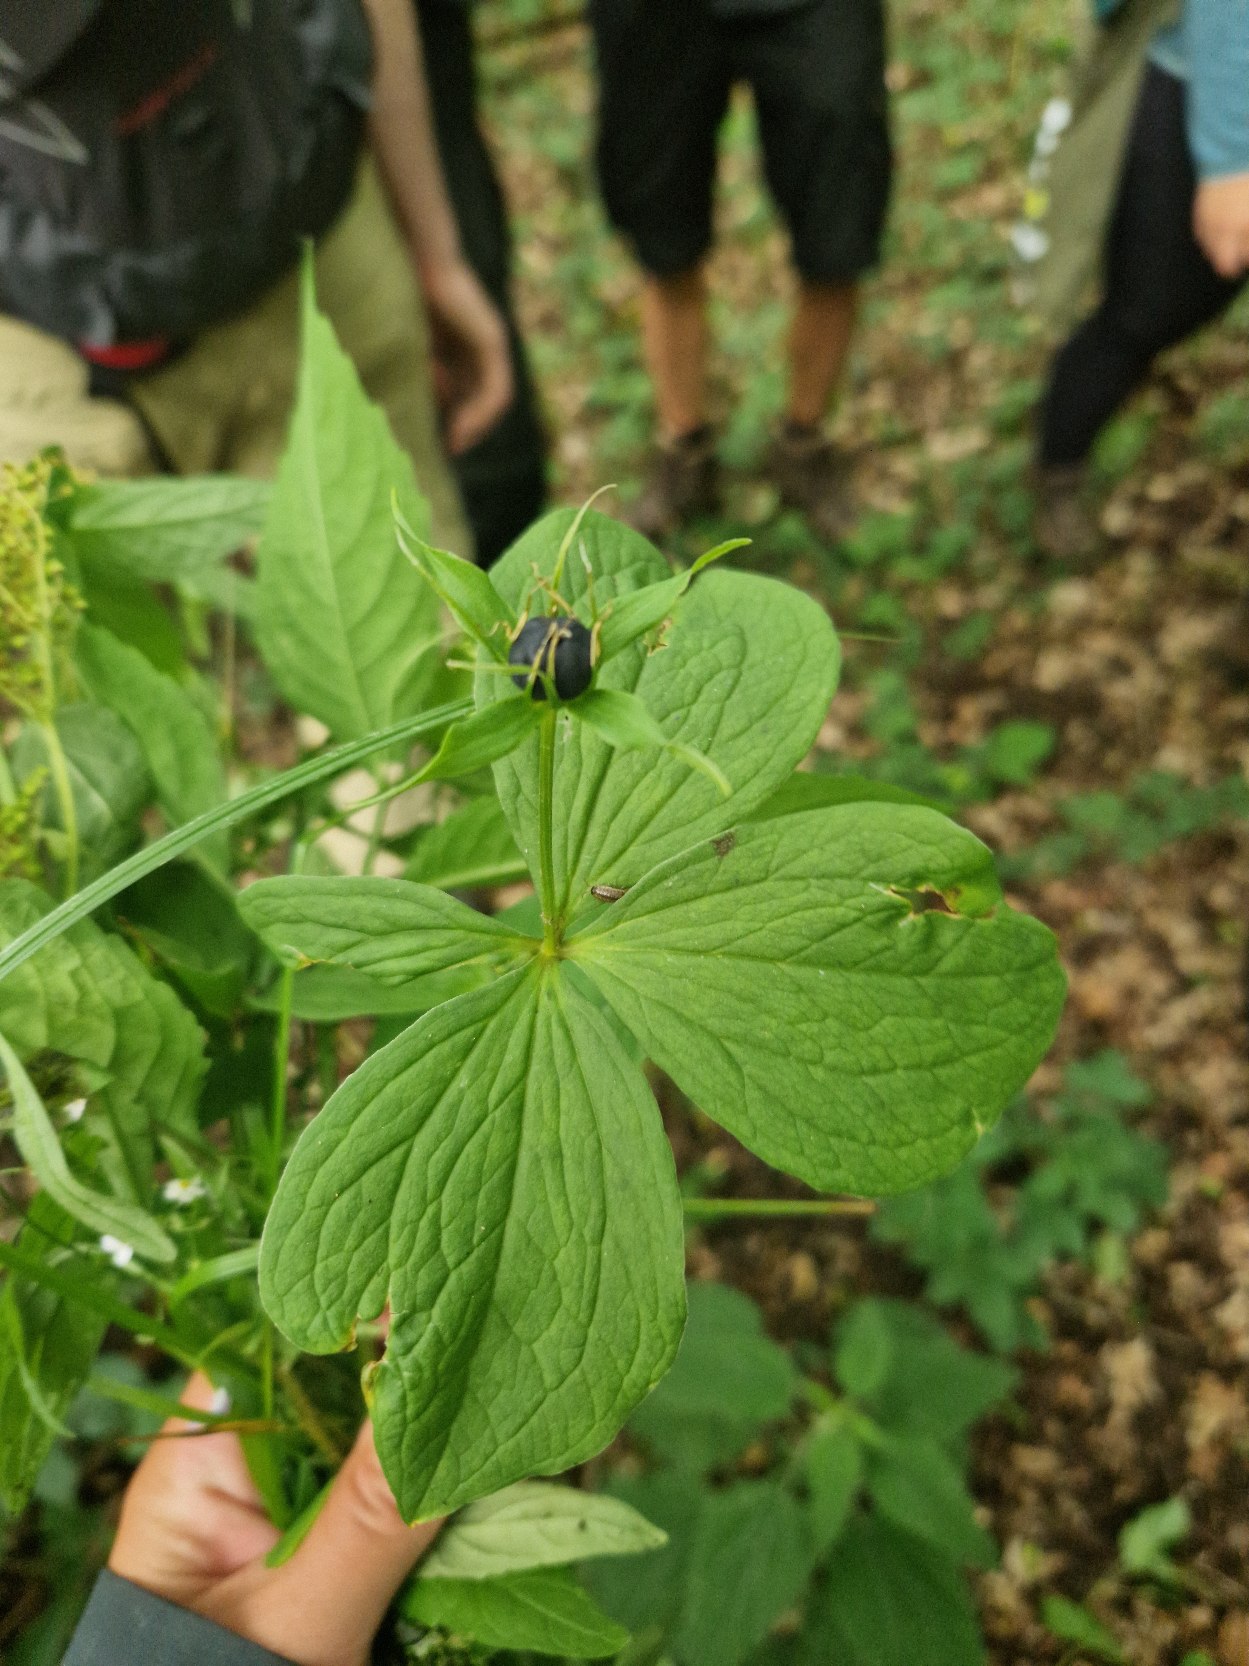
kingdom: Plantae
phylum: Tracheophyta
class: Liliopsida
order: Liliales
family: Melanthiaceae
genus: Paris
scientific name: Paris quadrifolia
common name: Firblad
